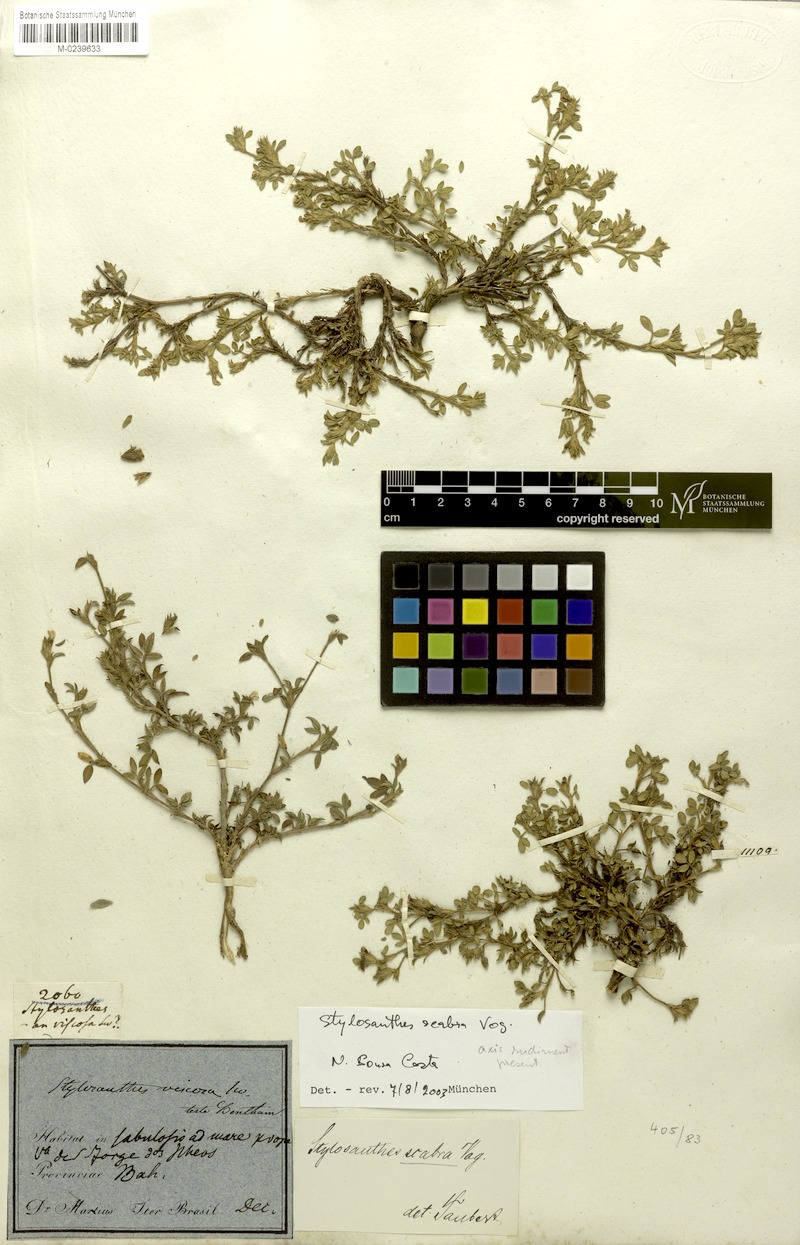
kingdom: Plantae
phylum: Tracheophyta
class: Magnoliopsida
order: Fabales
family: Fabaceae
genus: Stylosanthes
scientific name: Stylosanthes scabra
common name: Pencilflower
